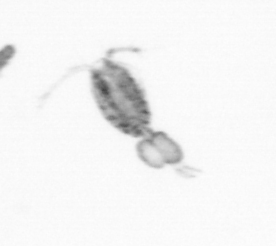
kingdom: Animalia
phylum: Arthropoda
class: Copepoda
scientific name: Copepoda
